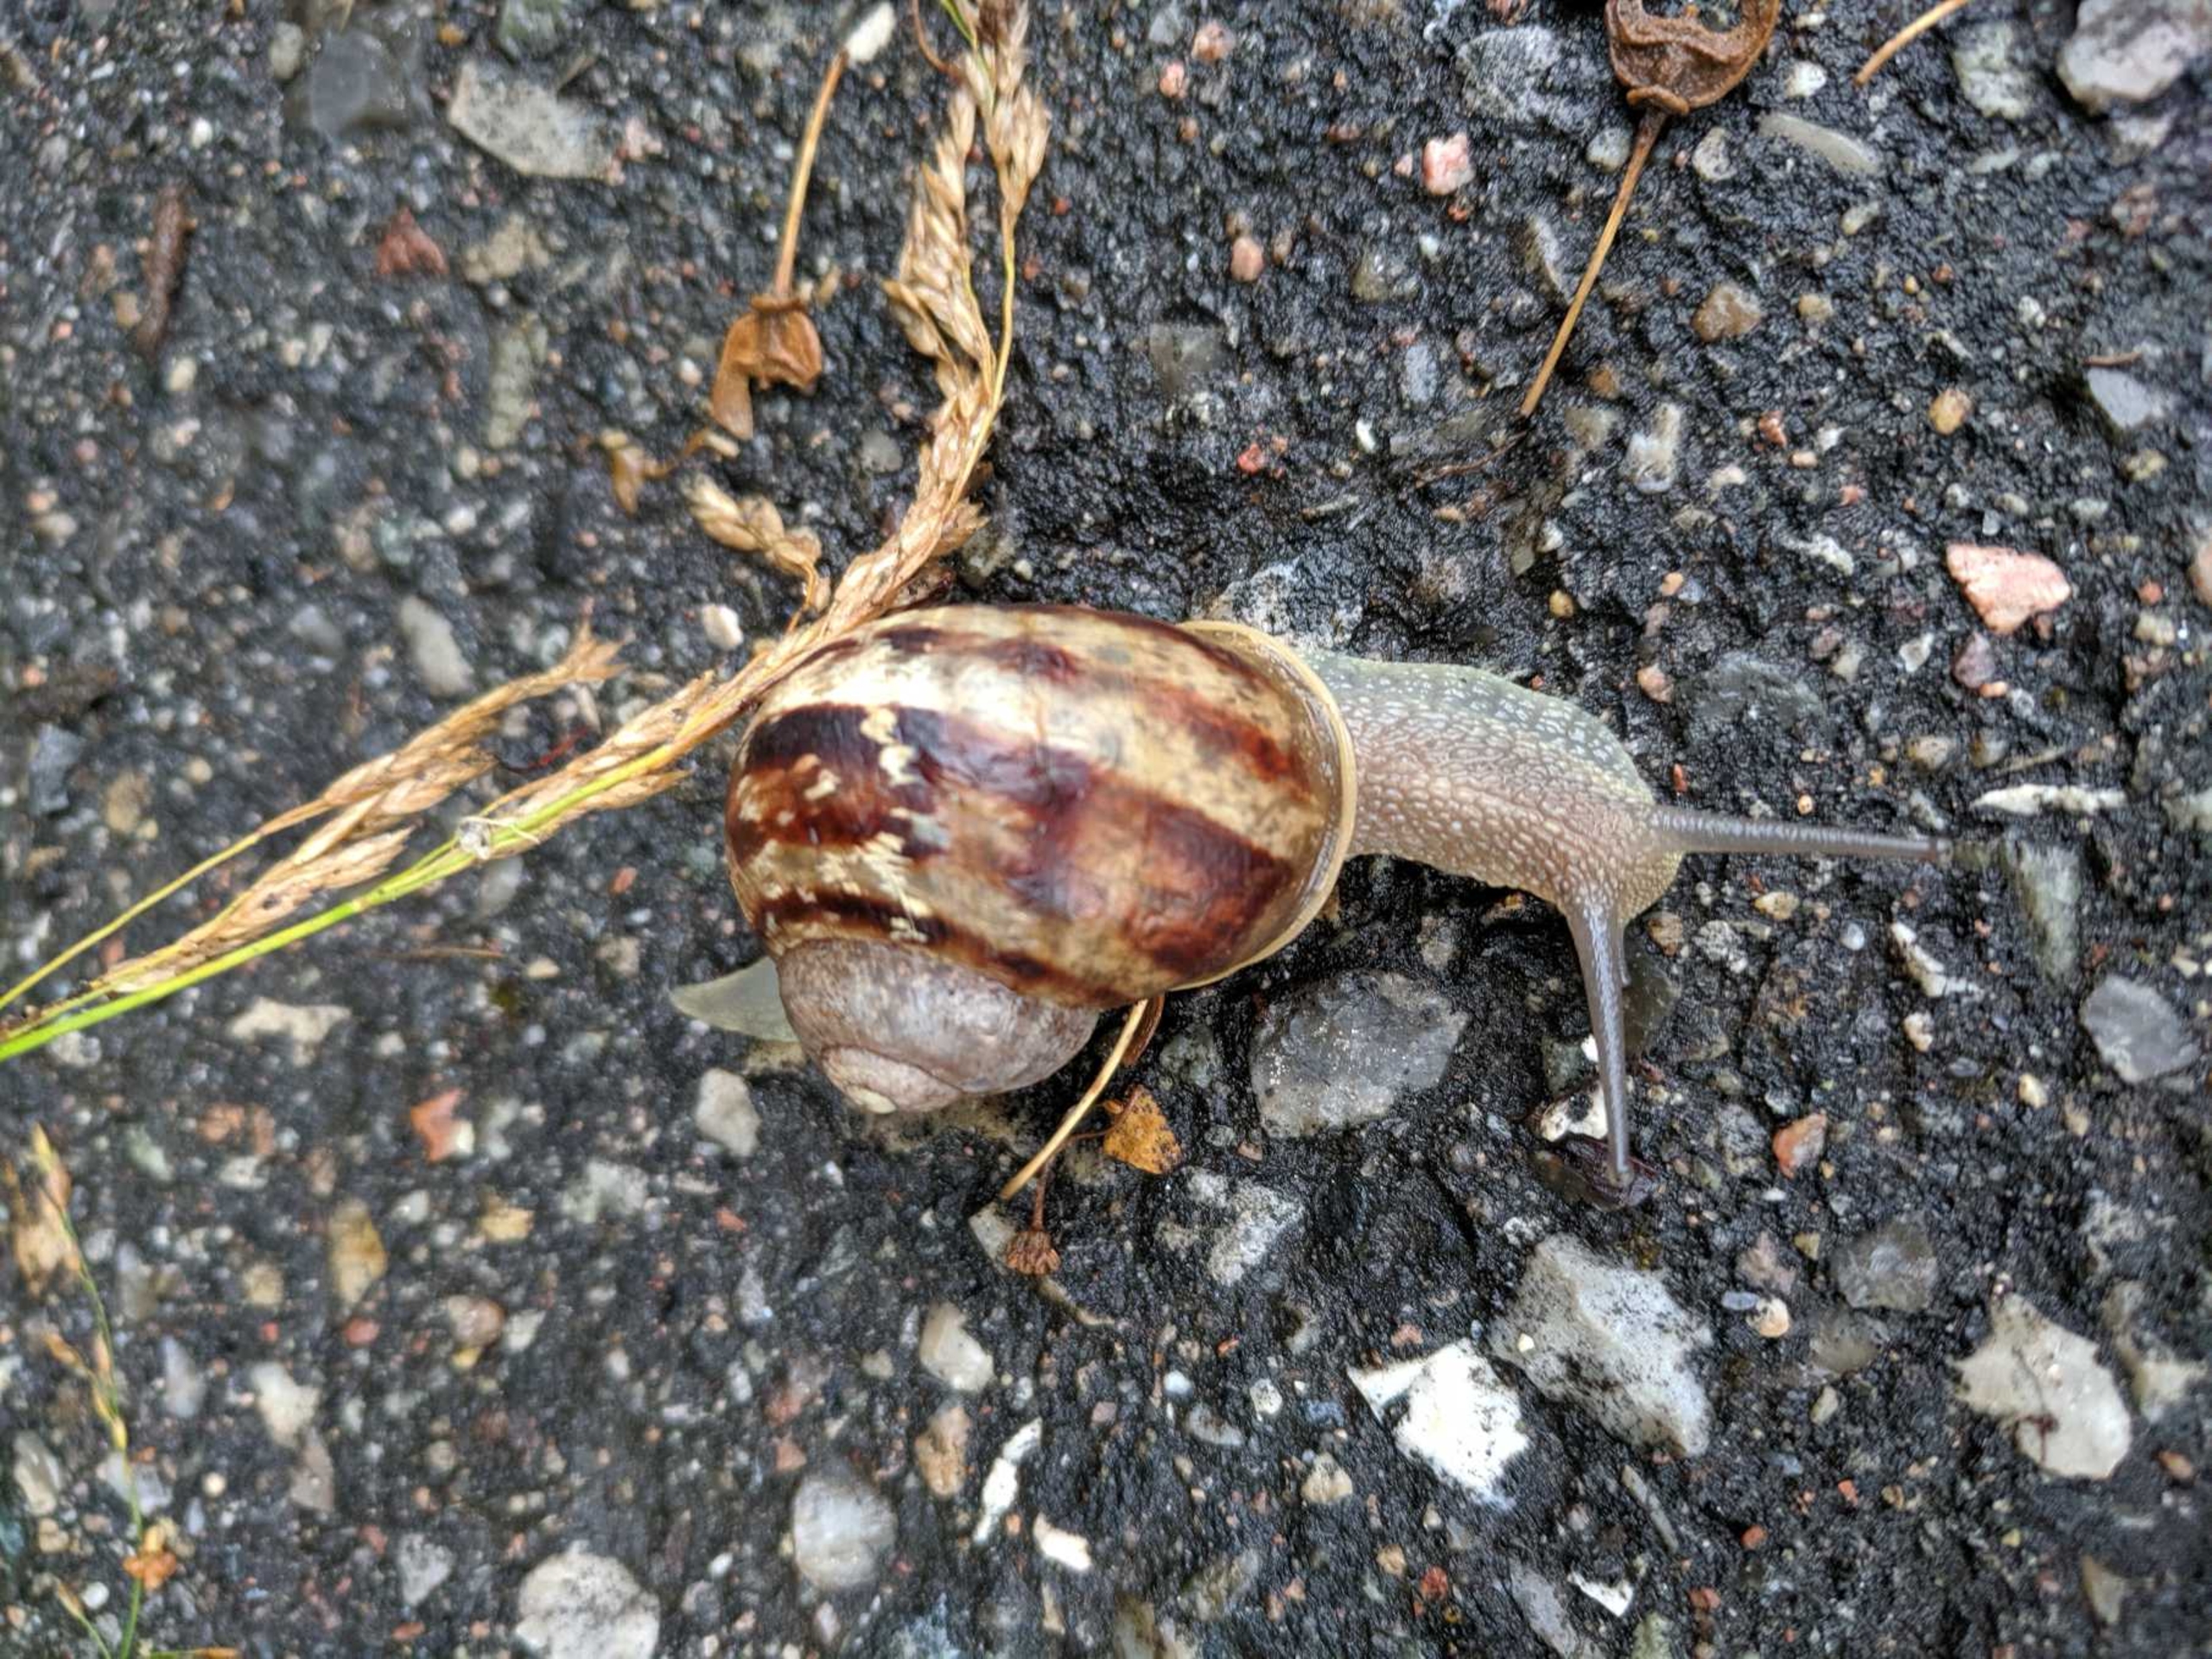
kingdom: Animalia
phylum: Mollusca
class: Gastropoda
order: Stylommatophora
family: Helicidae
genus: Cornu
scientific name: Cornu aspersum
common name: Plettet voldsnegl
